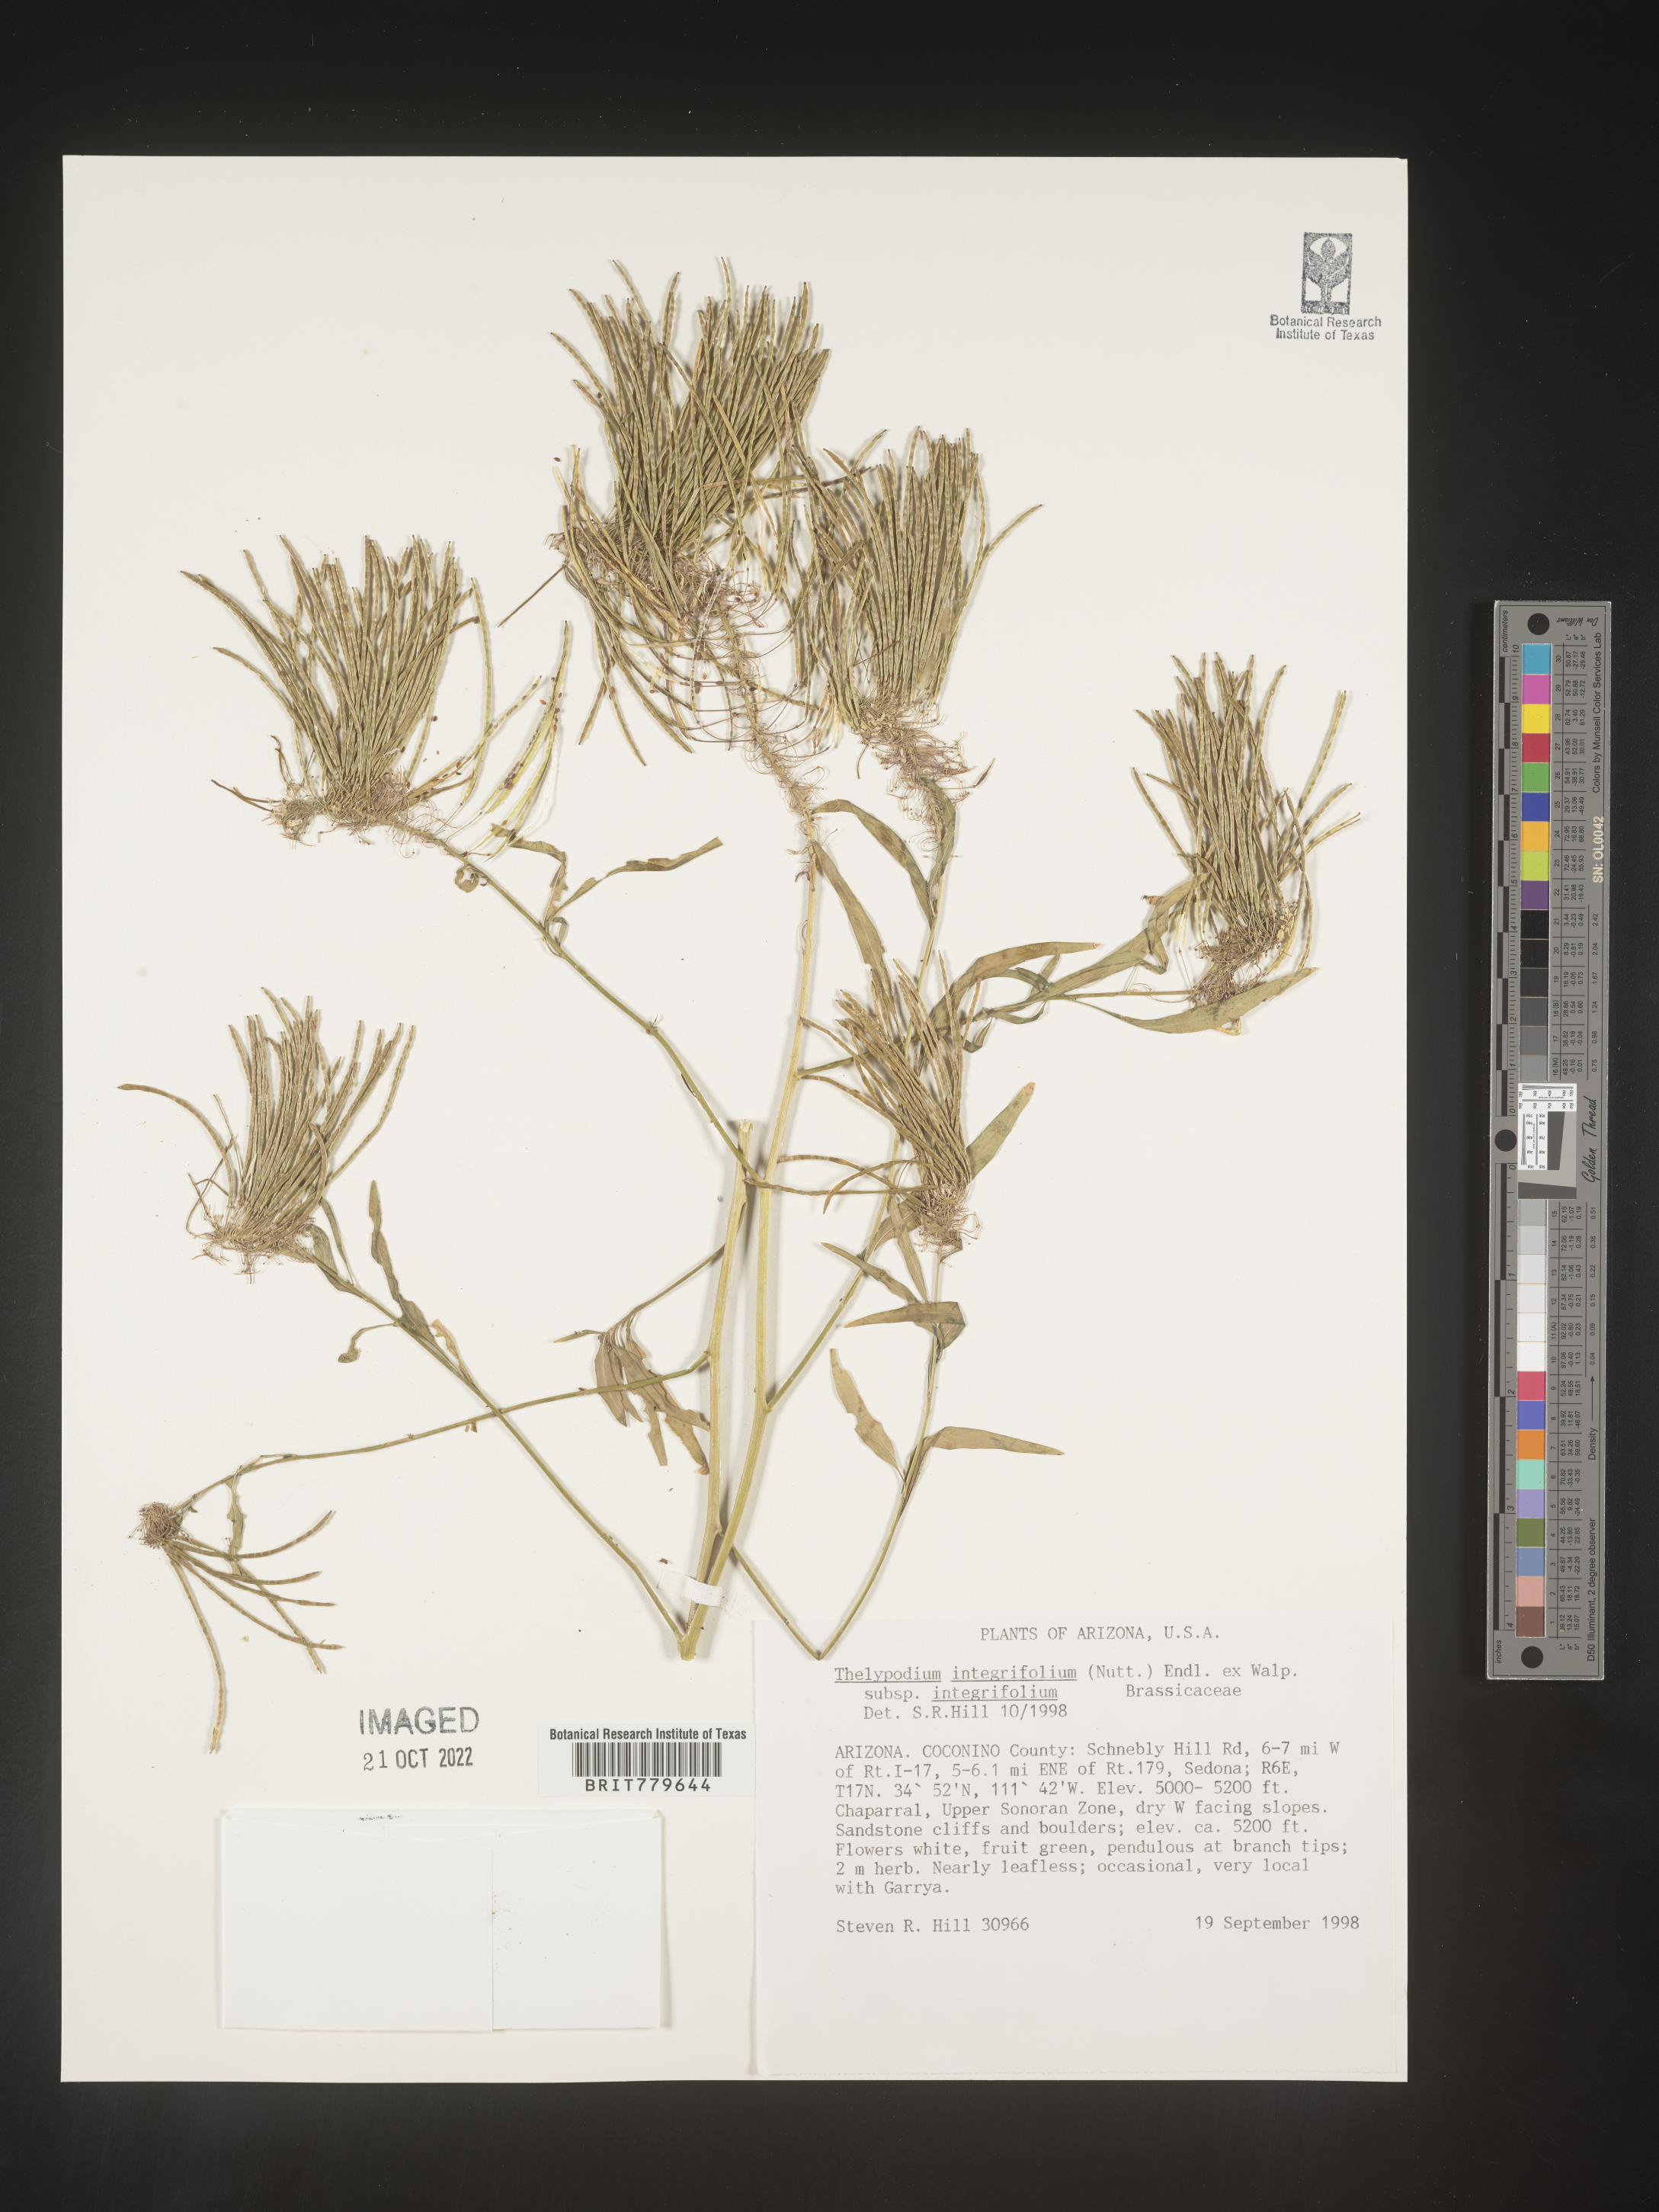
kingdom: Plantae
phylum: Tracheophyta
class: Magnoliopsida
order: Brassicales
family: Brassicaceae
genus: Thelypodium
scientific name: Thelypodium
